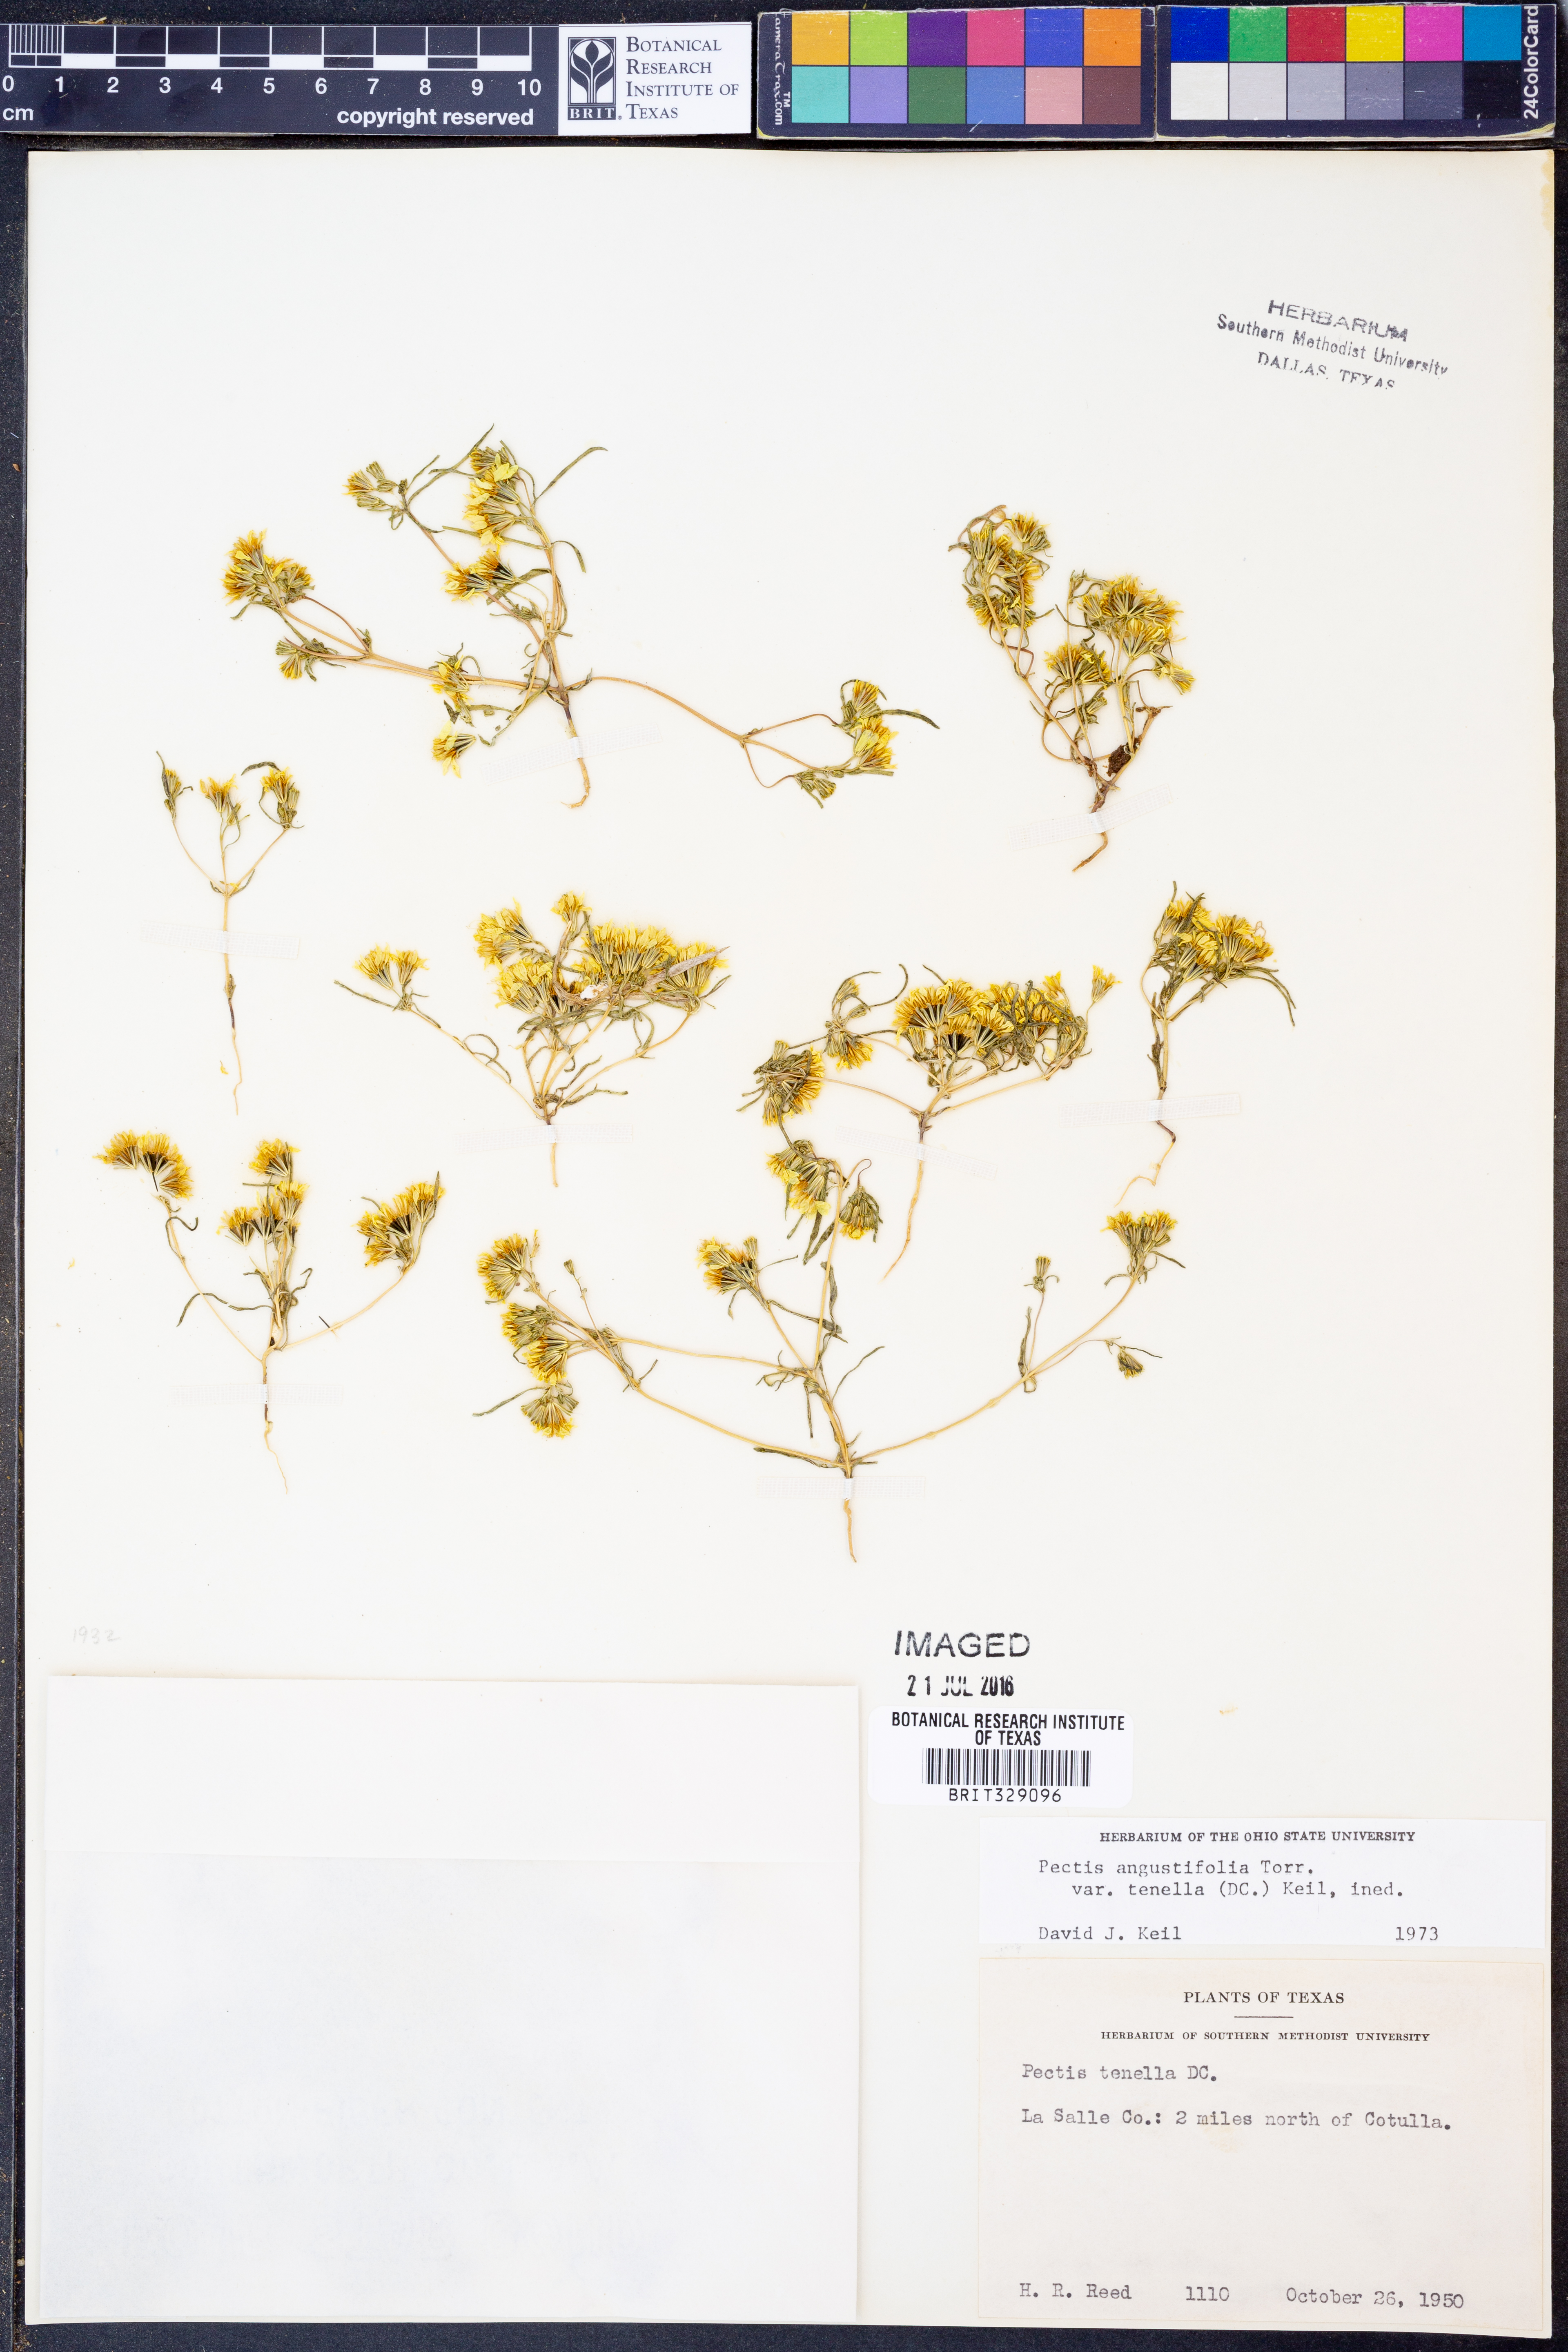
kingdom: Plantae
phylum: Tracheophyta
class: Magnoliopsida
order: Asterales
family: Asteraceae
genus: Pectis
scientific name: Pectis angustifolia
